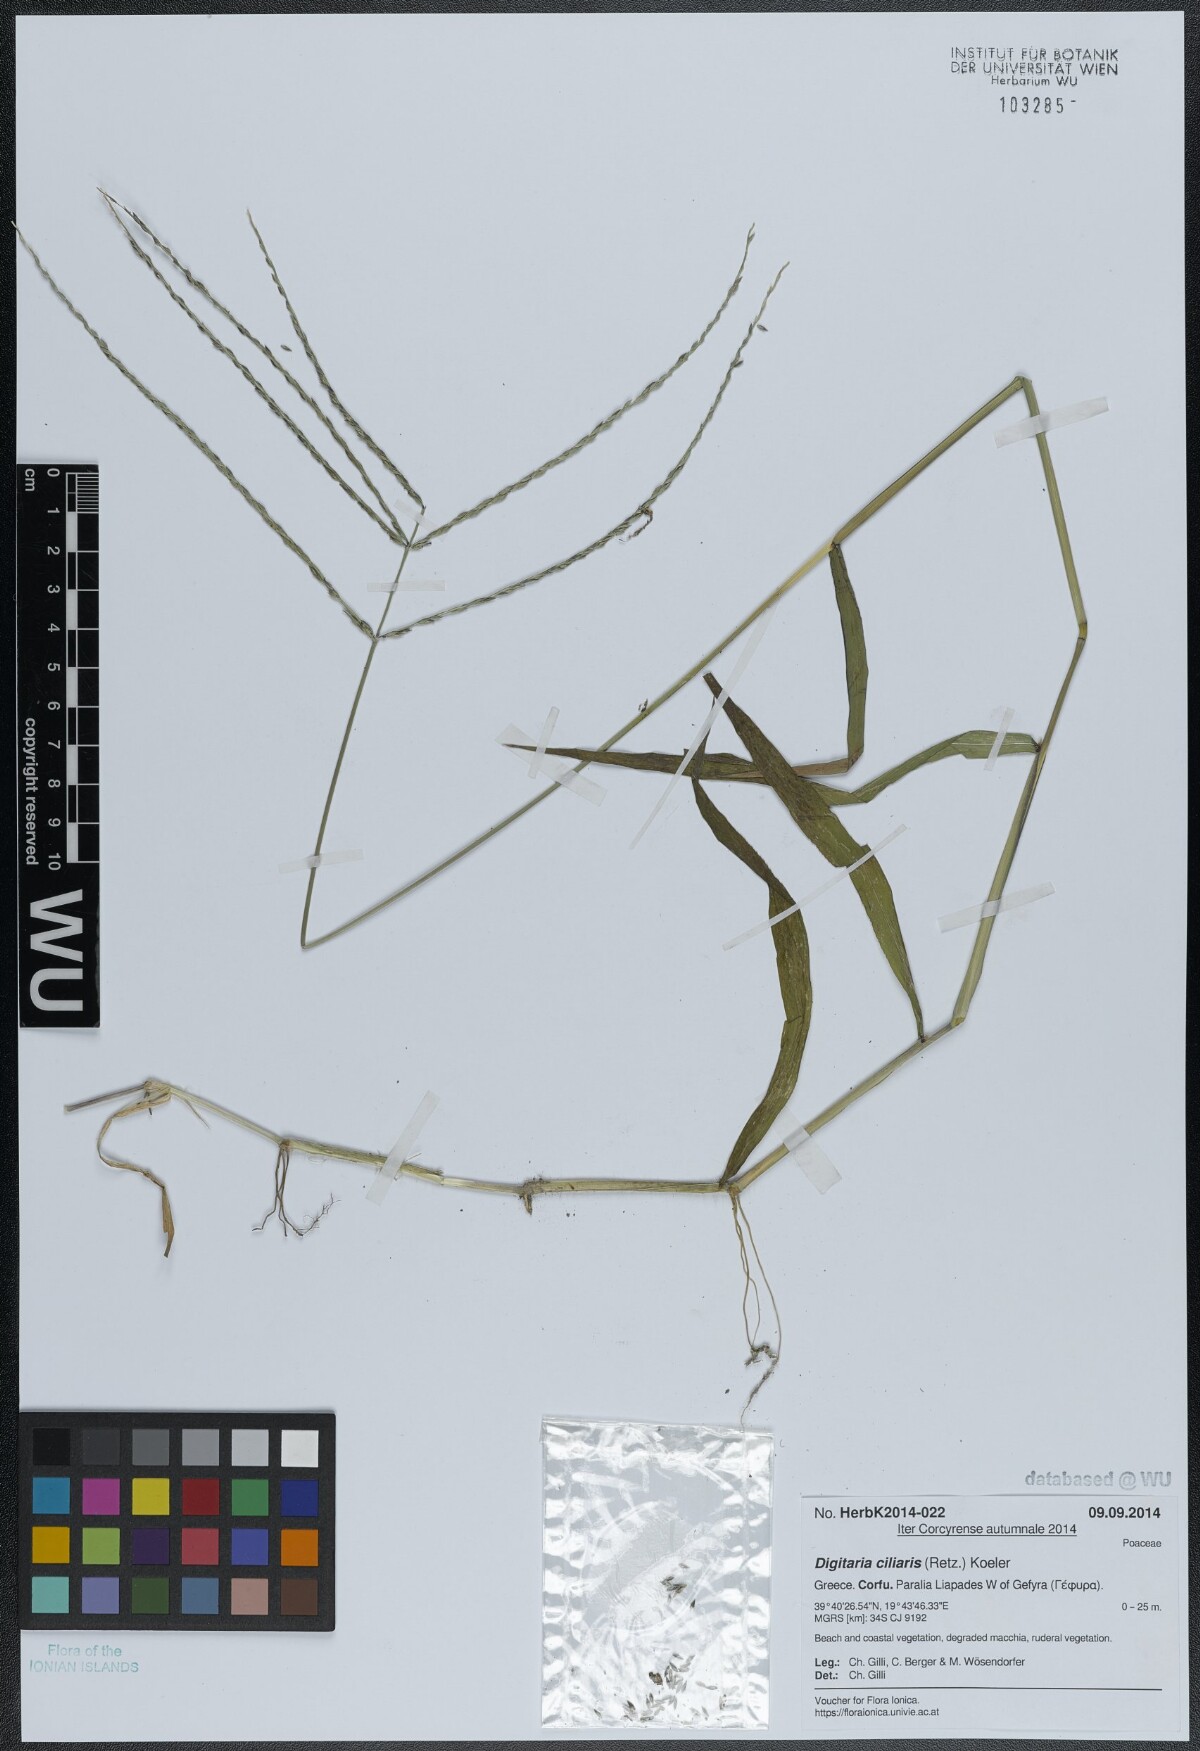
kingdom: Plantae
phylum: Tracheophyta
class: Liliopsida
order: Poales
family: Poaceae
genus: Digitaria
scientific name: Digitaria ciliaris
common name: Tropical finger-grass
